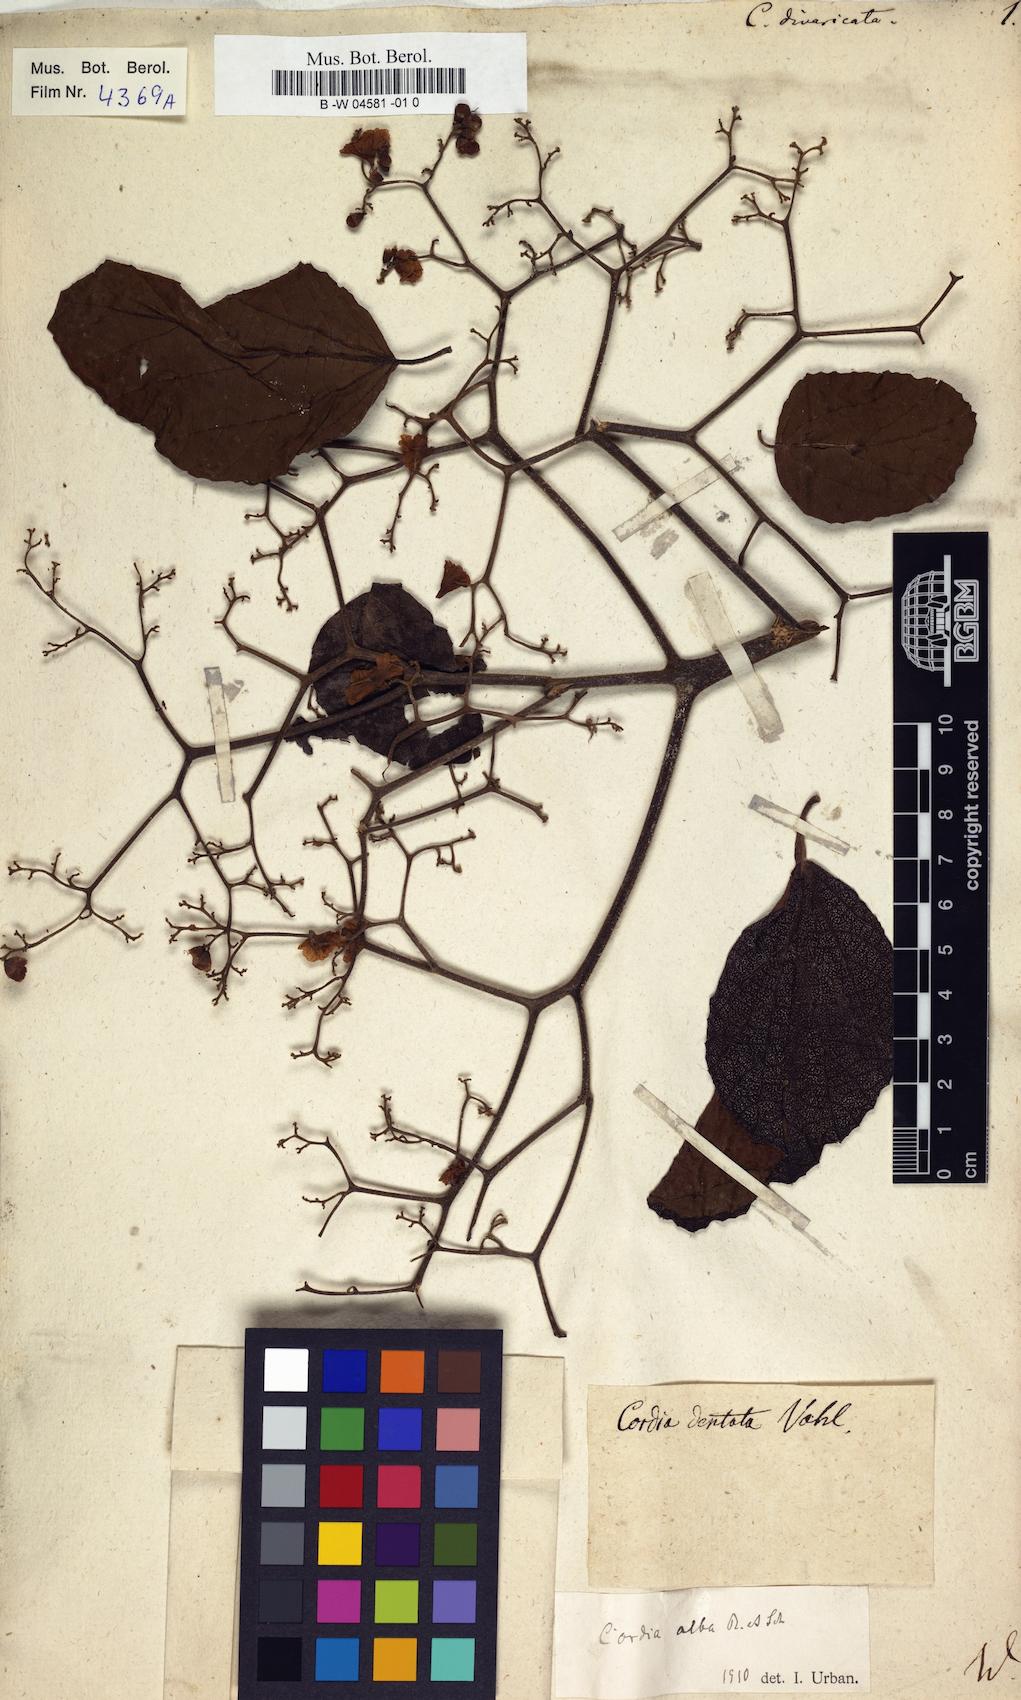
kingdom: Plantae
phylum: Tracheophyta
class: Magnoliopsida
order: Boraginales
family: Cordiaceae
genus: Varronia
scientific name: Varronia curassavica
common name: Black sage
